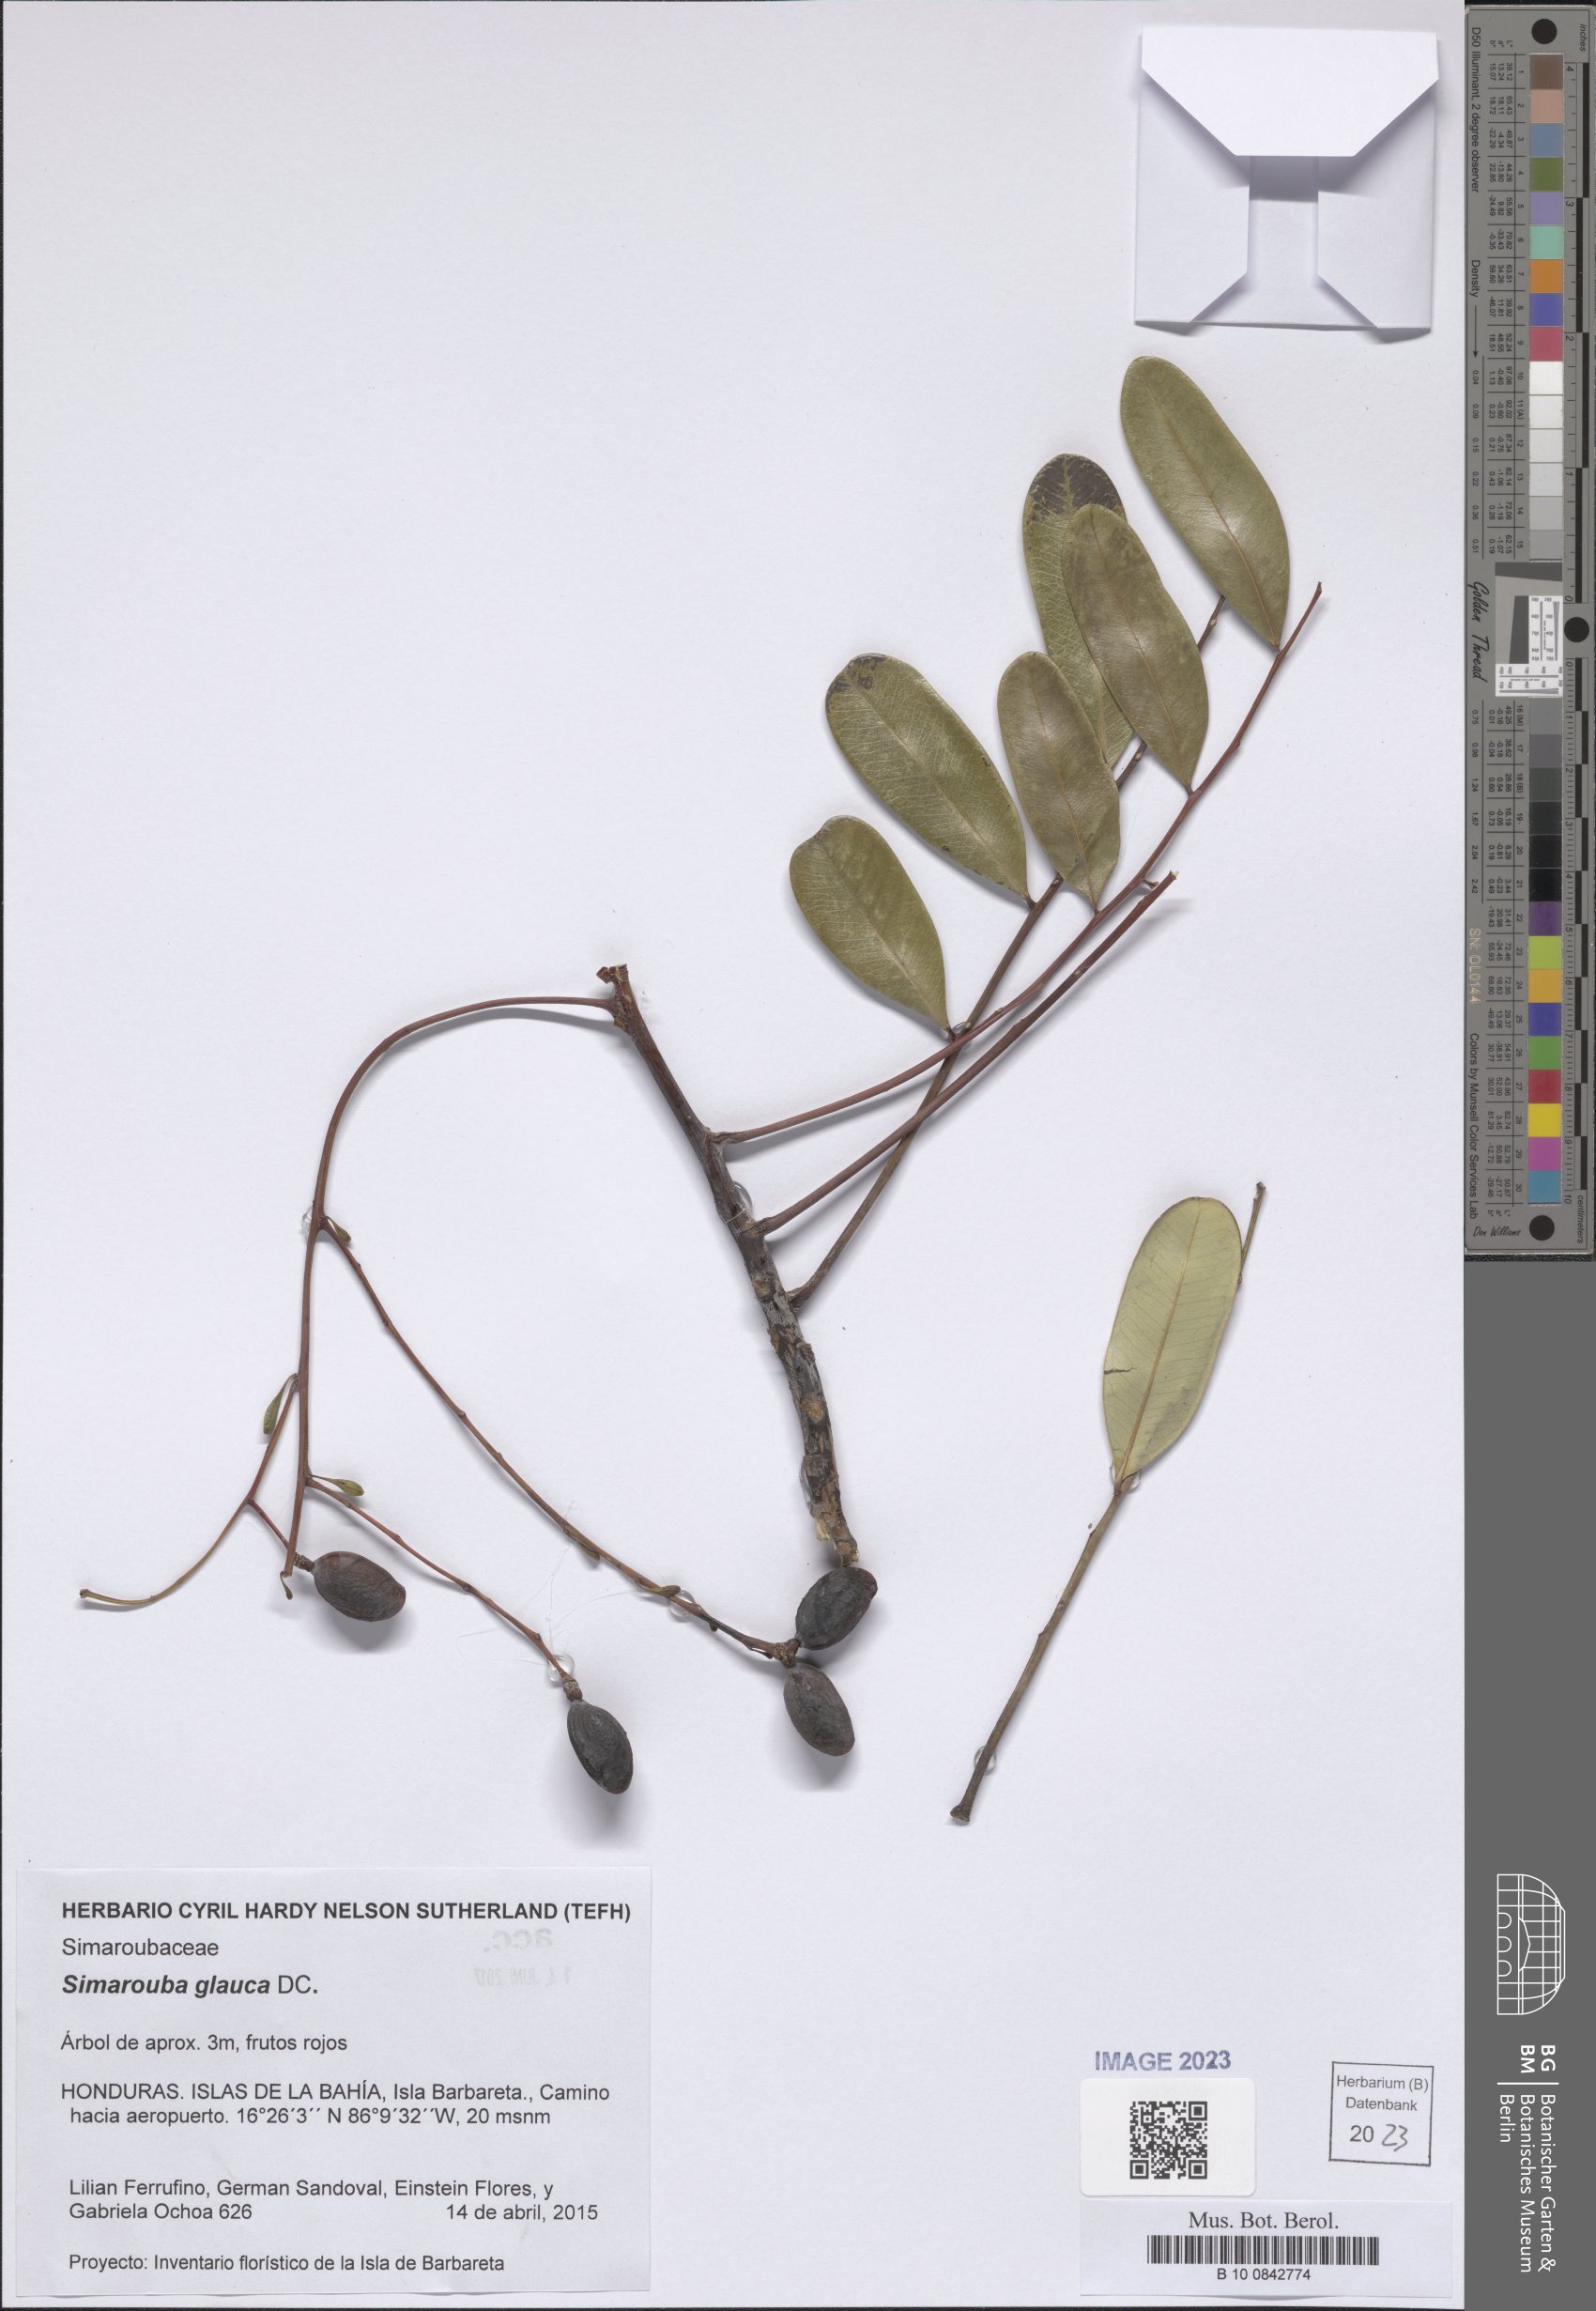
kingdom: Plantae
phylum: Tracheophyta
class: Magnoliopsida
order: Sapindales
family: Simaroubaceae
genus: Simarouba
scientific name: Simarouba glauca
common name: Dysentery-bark
